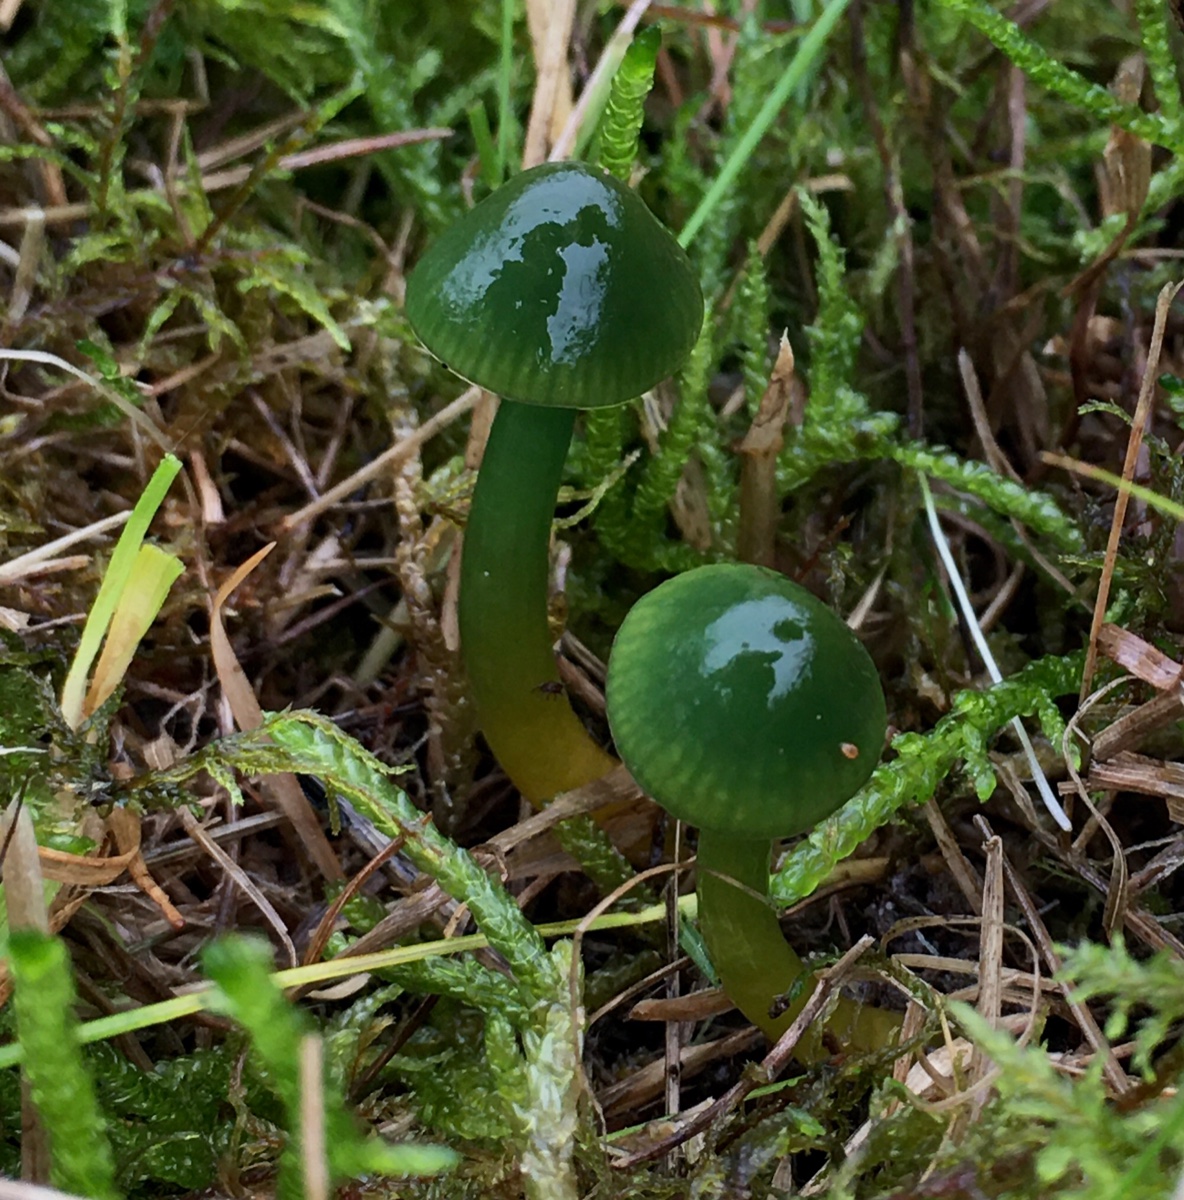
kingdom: Fungi
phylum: Basidiomycota
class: Agaricomycetes
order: Agaricales
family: Hygrophoraceae
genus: Gliophorus
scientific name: Gliophorus psittacinus
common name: papegøje-vokshat
